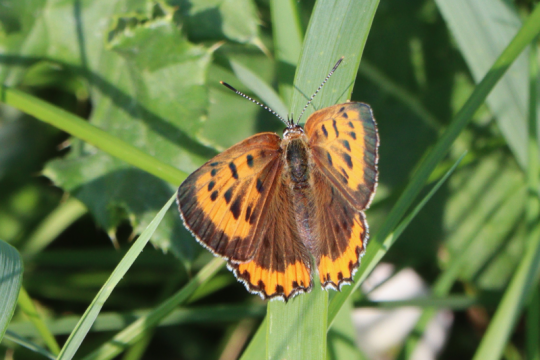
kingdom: Animalia
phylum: Arthropoda
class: Insecta
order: Lepidoptera
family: Sesiidae
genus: Sesia
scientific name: Sesia Lycaena hyllus
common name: Bronze Copper
